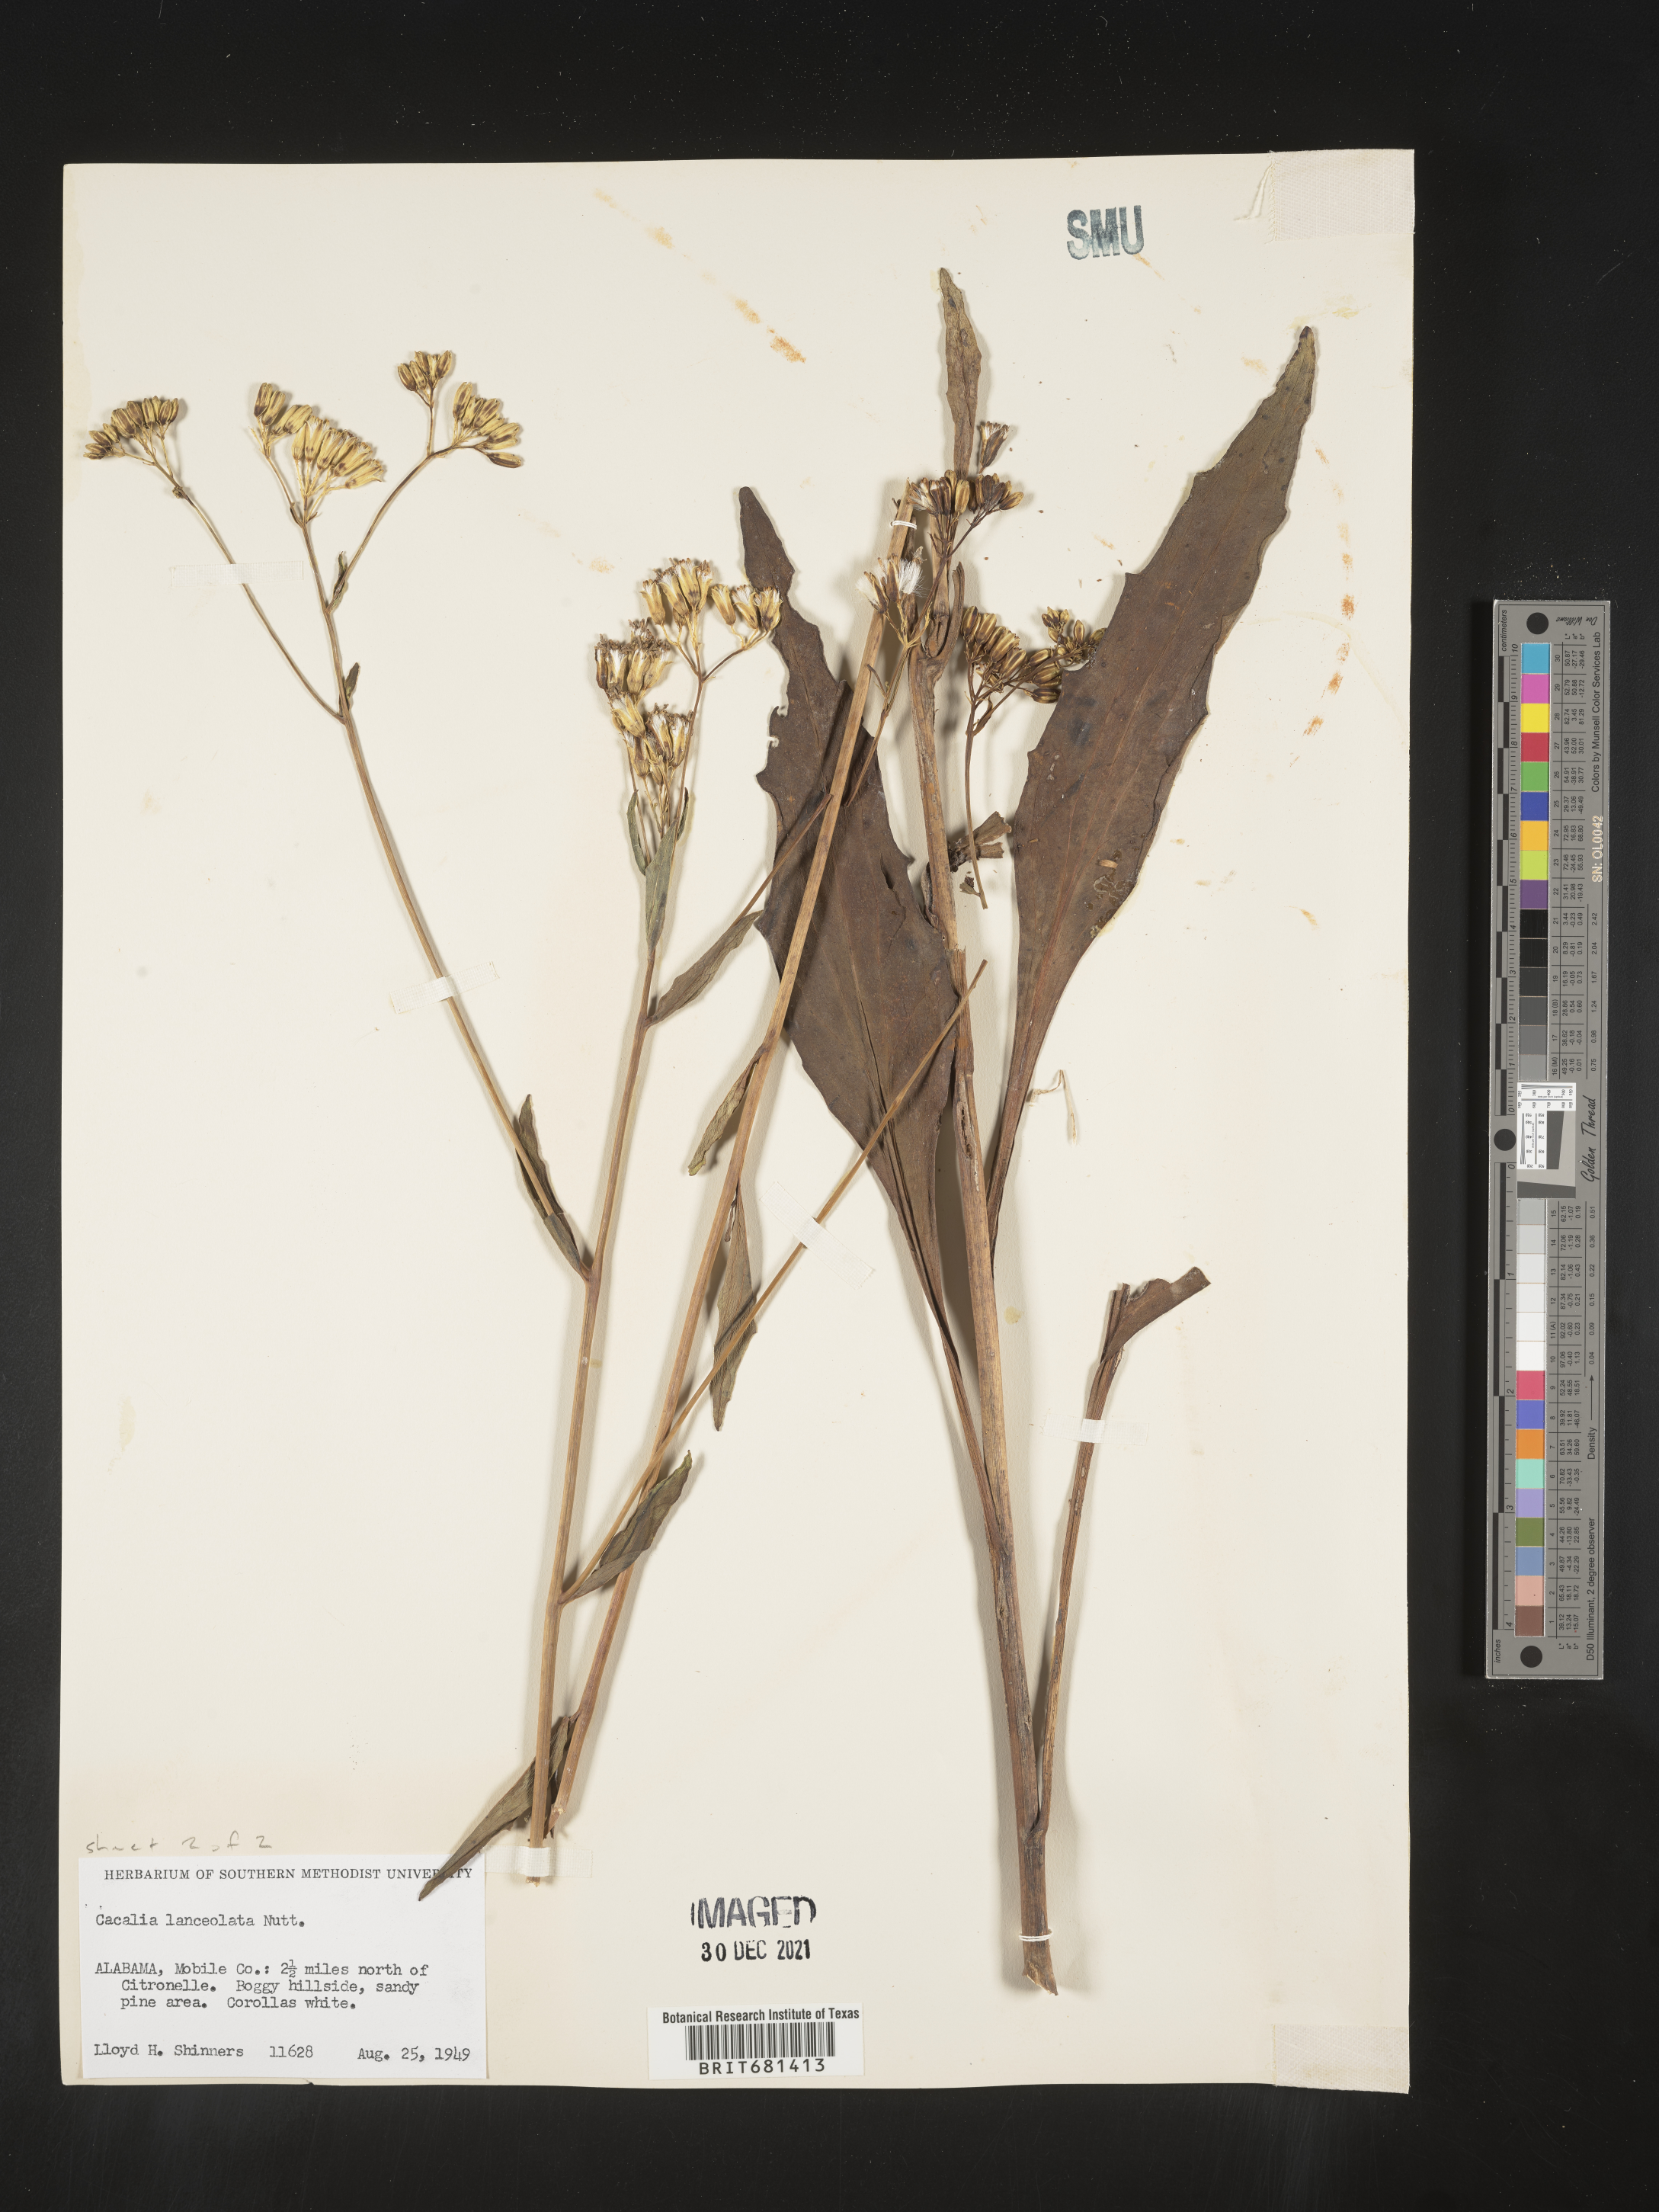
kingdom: Plantae
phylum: Tracheophyta
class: Magnoliopsida
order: Asterales
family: Asteraceae
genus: Arnoglossum
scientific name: Arnoglossum ovatum
